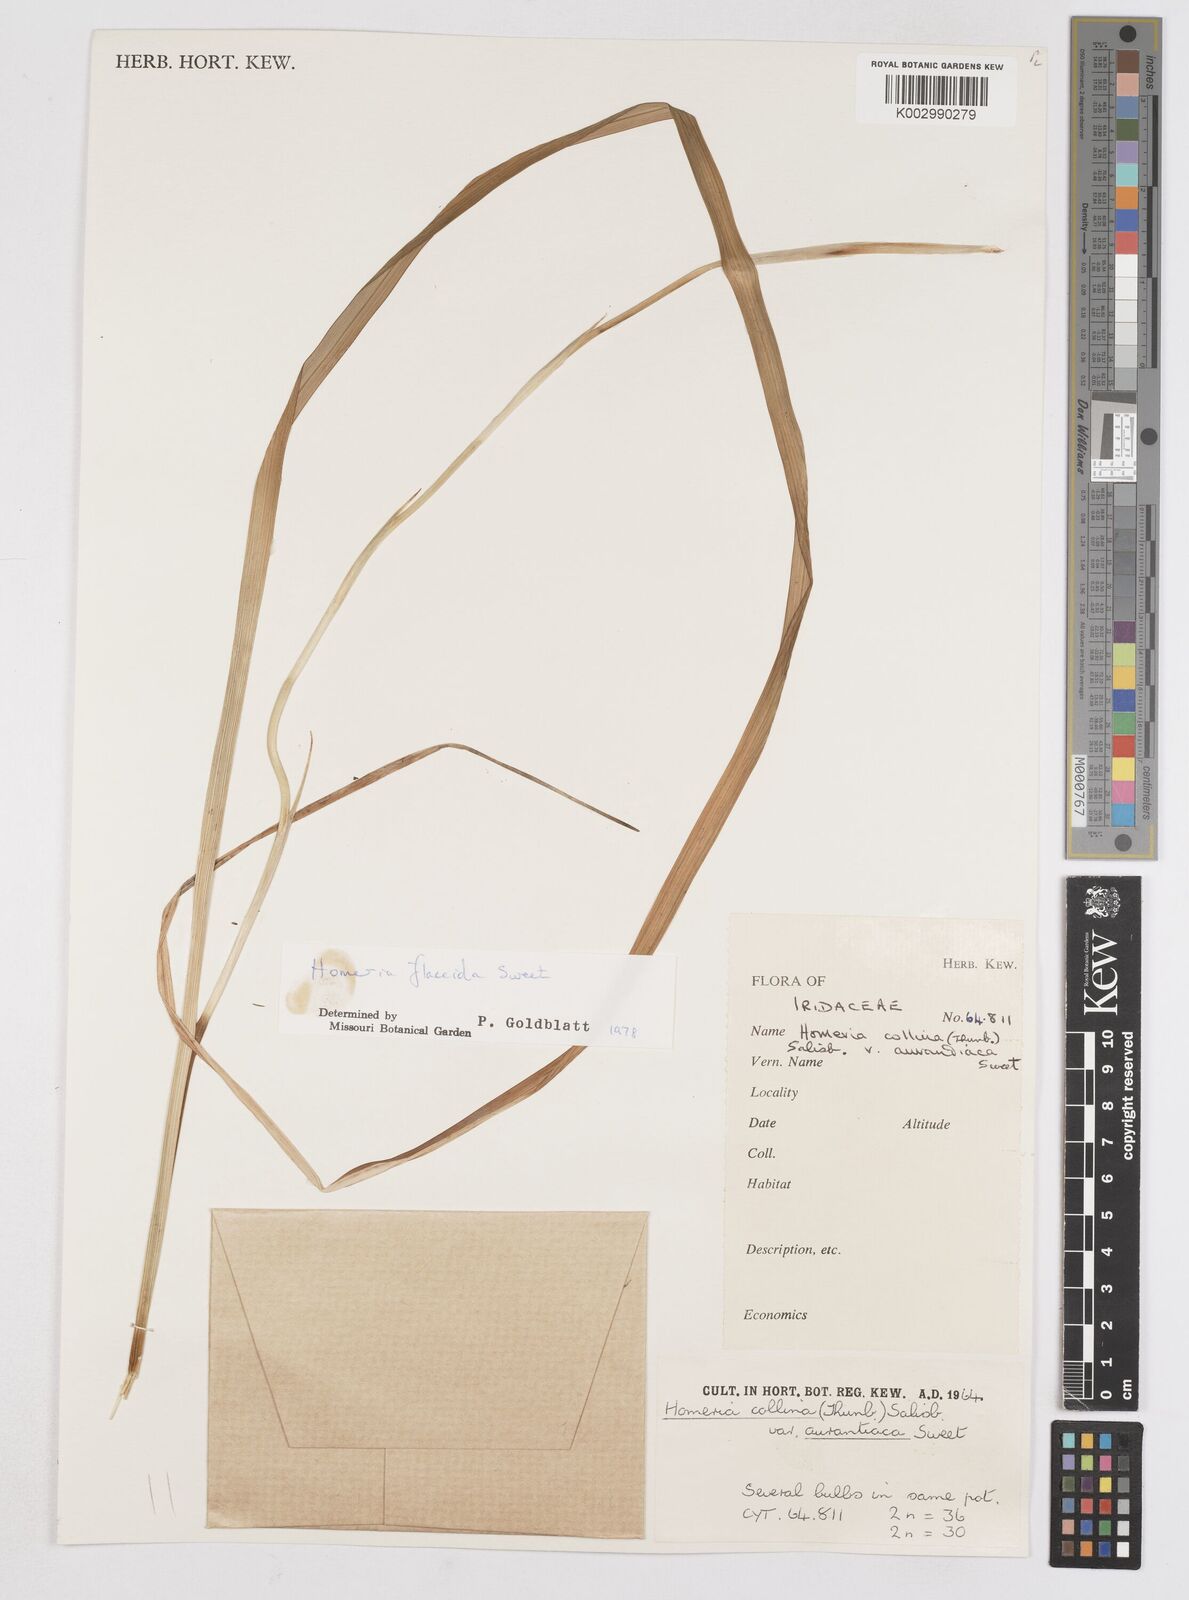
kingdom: Plantae
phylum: Tracheophyta
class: Liliopsida
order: Asparagales
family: Iridaceae
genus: Moraea
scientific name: Moraea flaccida
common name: One-leaf cape-tulip
